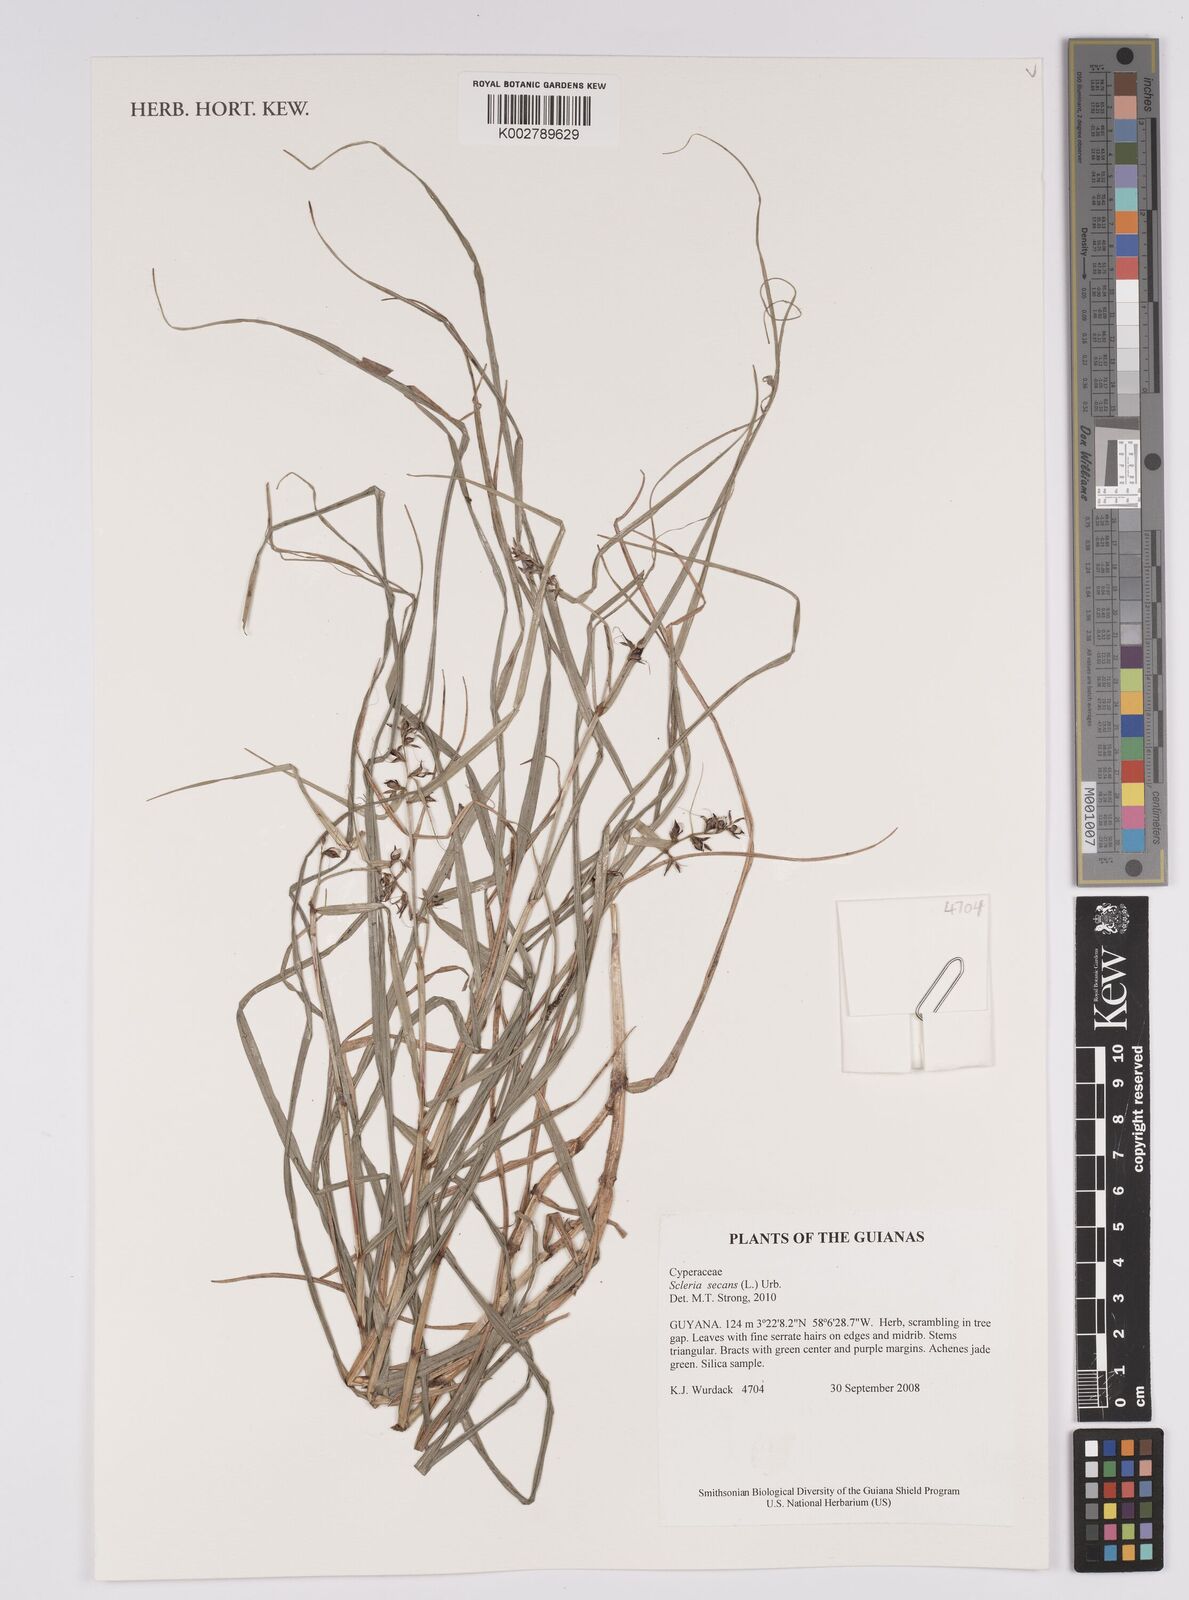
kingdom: Plantae
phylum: Tracheophyta
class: Liliopsida
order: Poales
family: Cyperaceae
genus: Scleria
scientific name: Scleria secans
